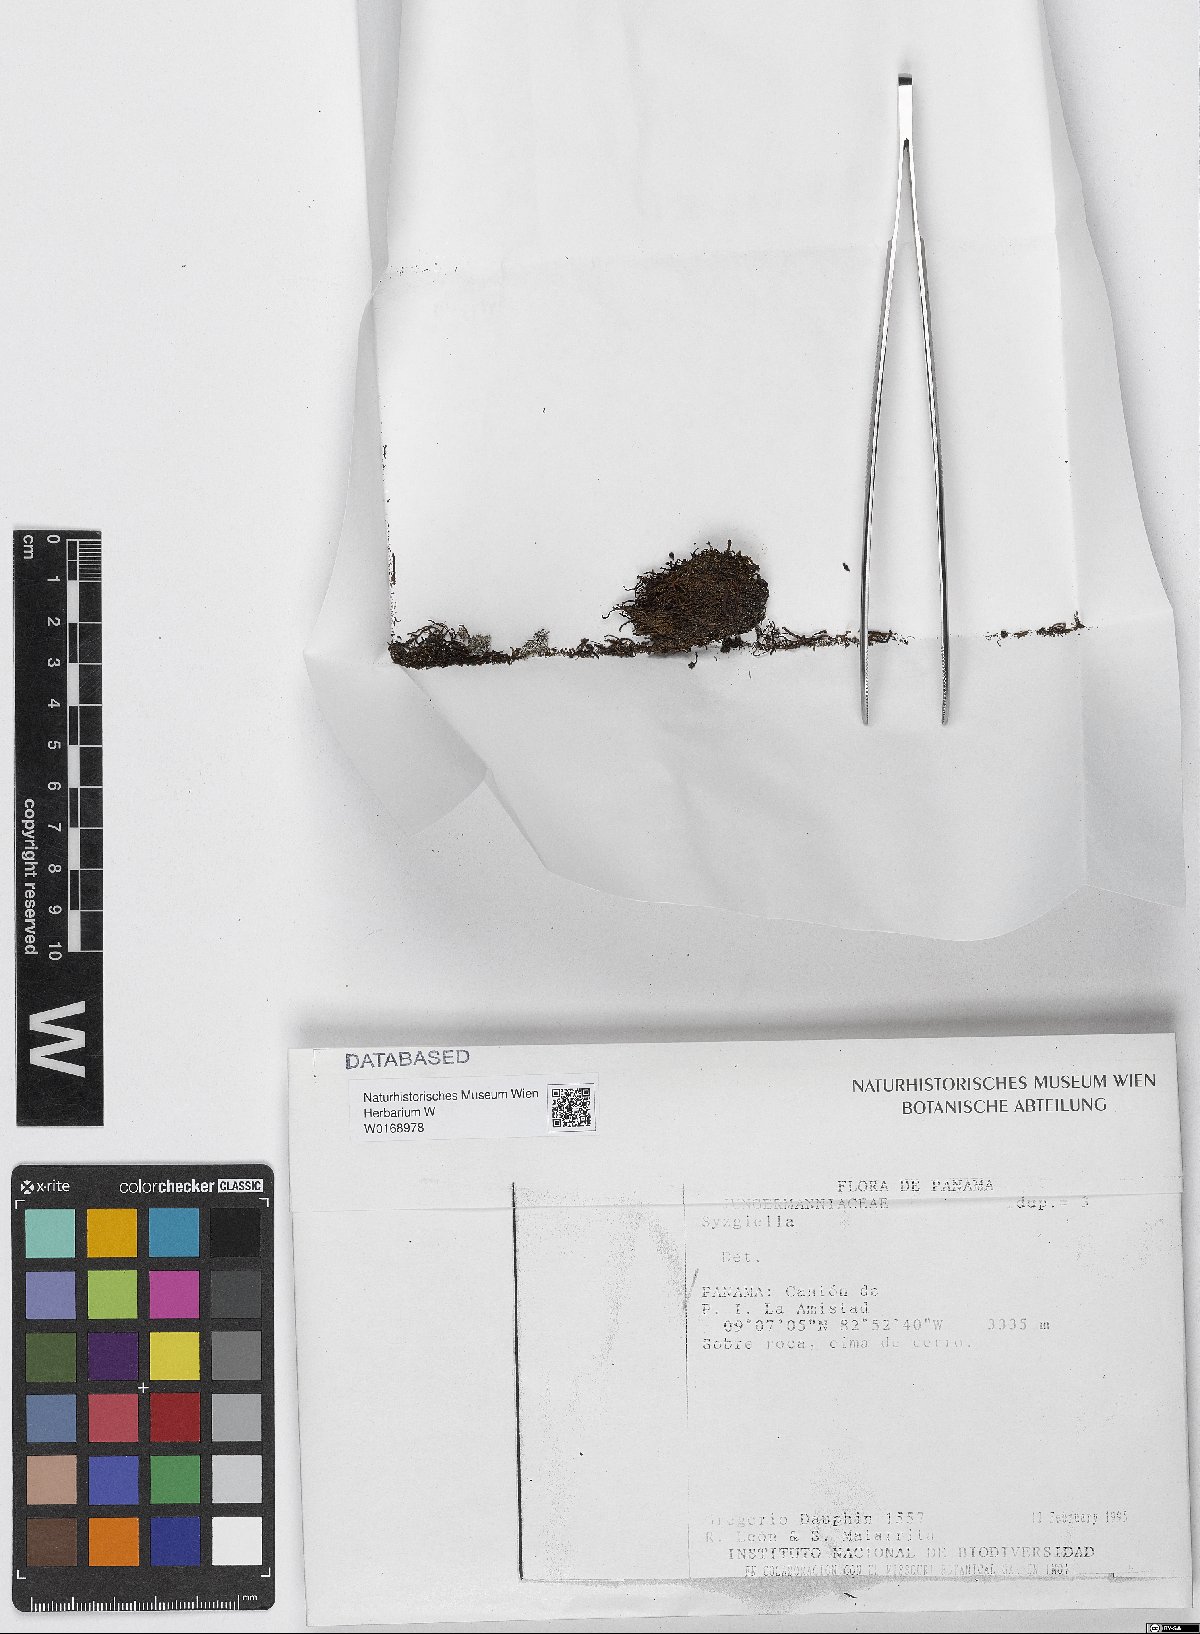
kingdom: Plantae
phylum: Marchantiophyta
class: Jungermanniopsida
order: Jungermanniales
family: Adelanthaceae
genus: Syzygiella
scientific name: Syzygiella
